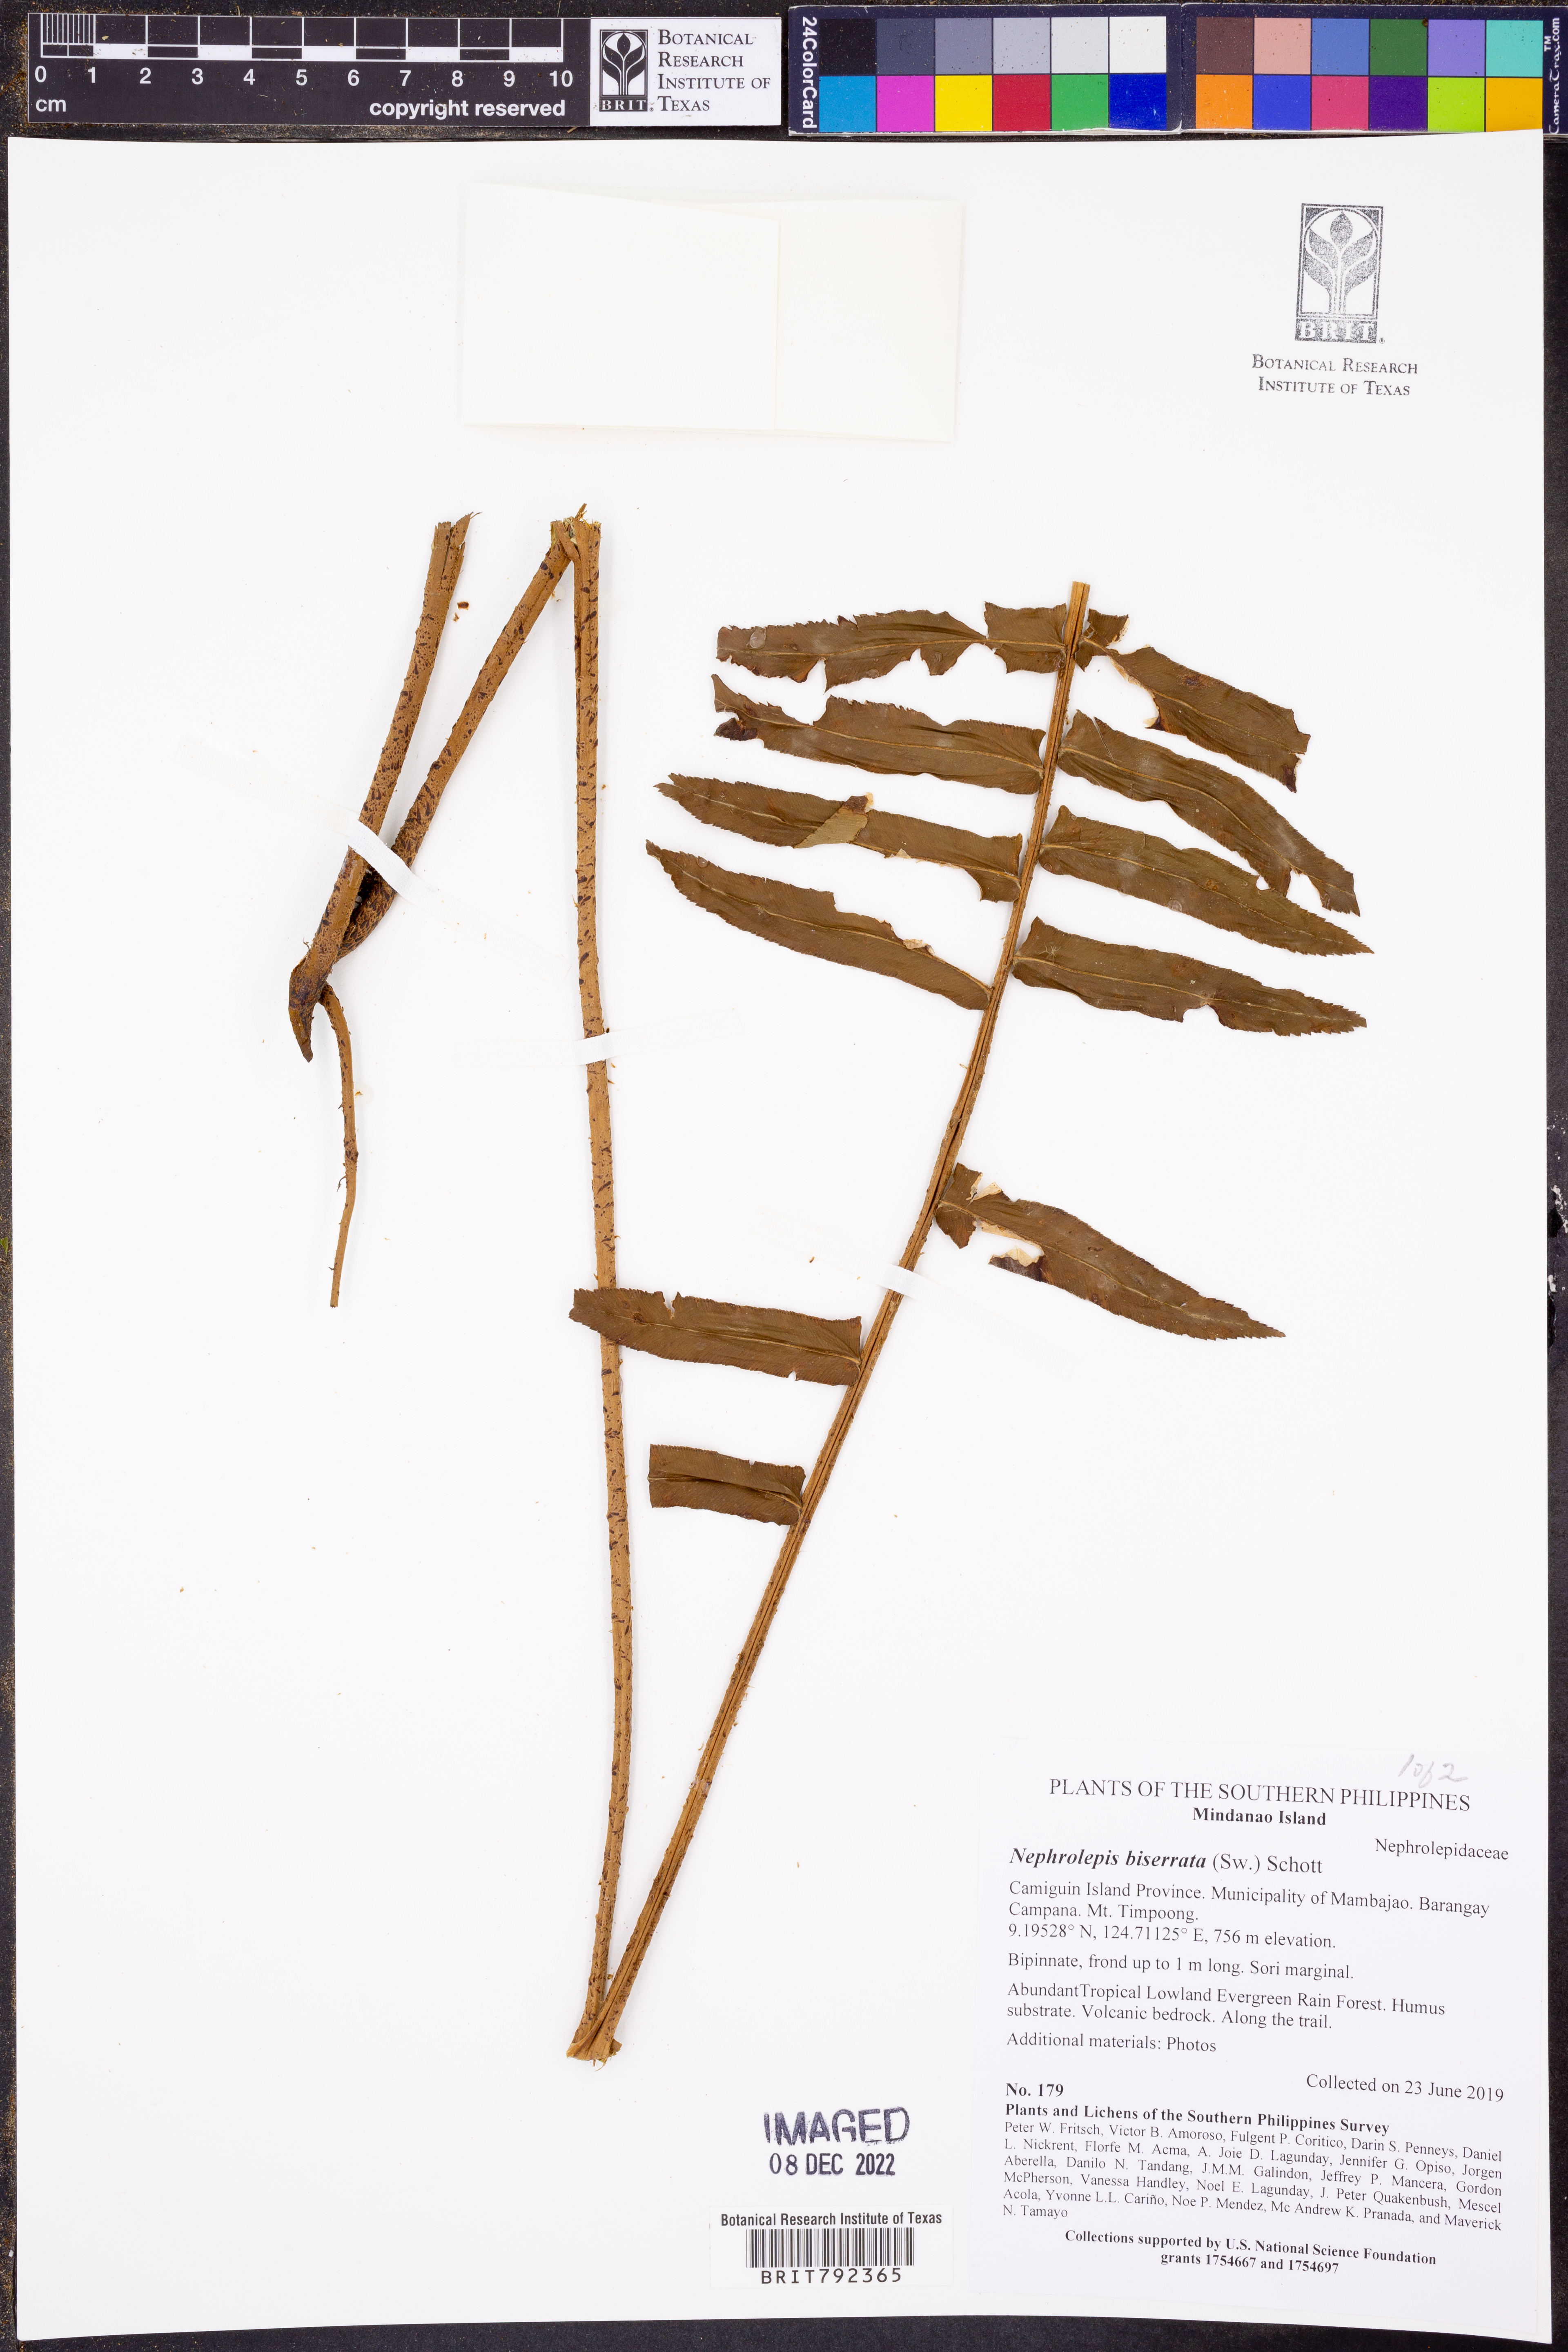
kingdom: Plantae
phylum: Tracheophyta
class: Polypodiopsida
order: Polypodiales
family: Nephrolepidaceae
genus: Nephrolepis
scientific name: Nephrolepis biserrata
